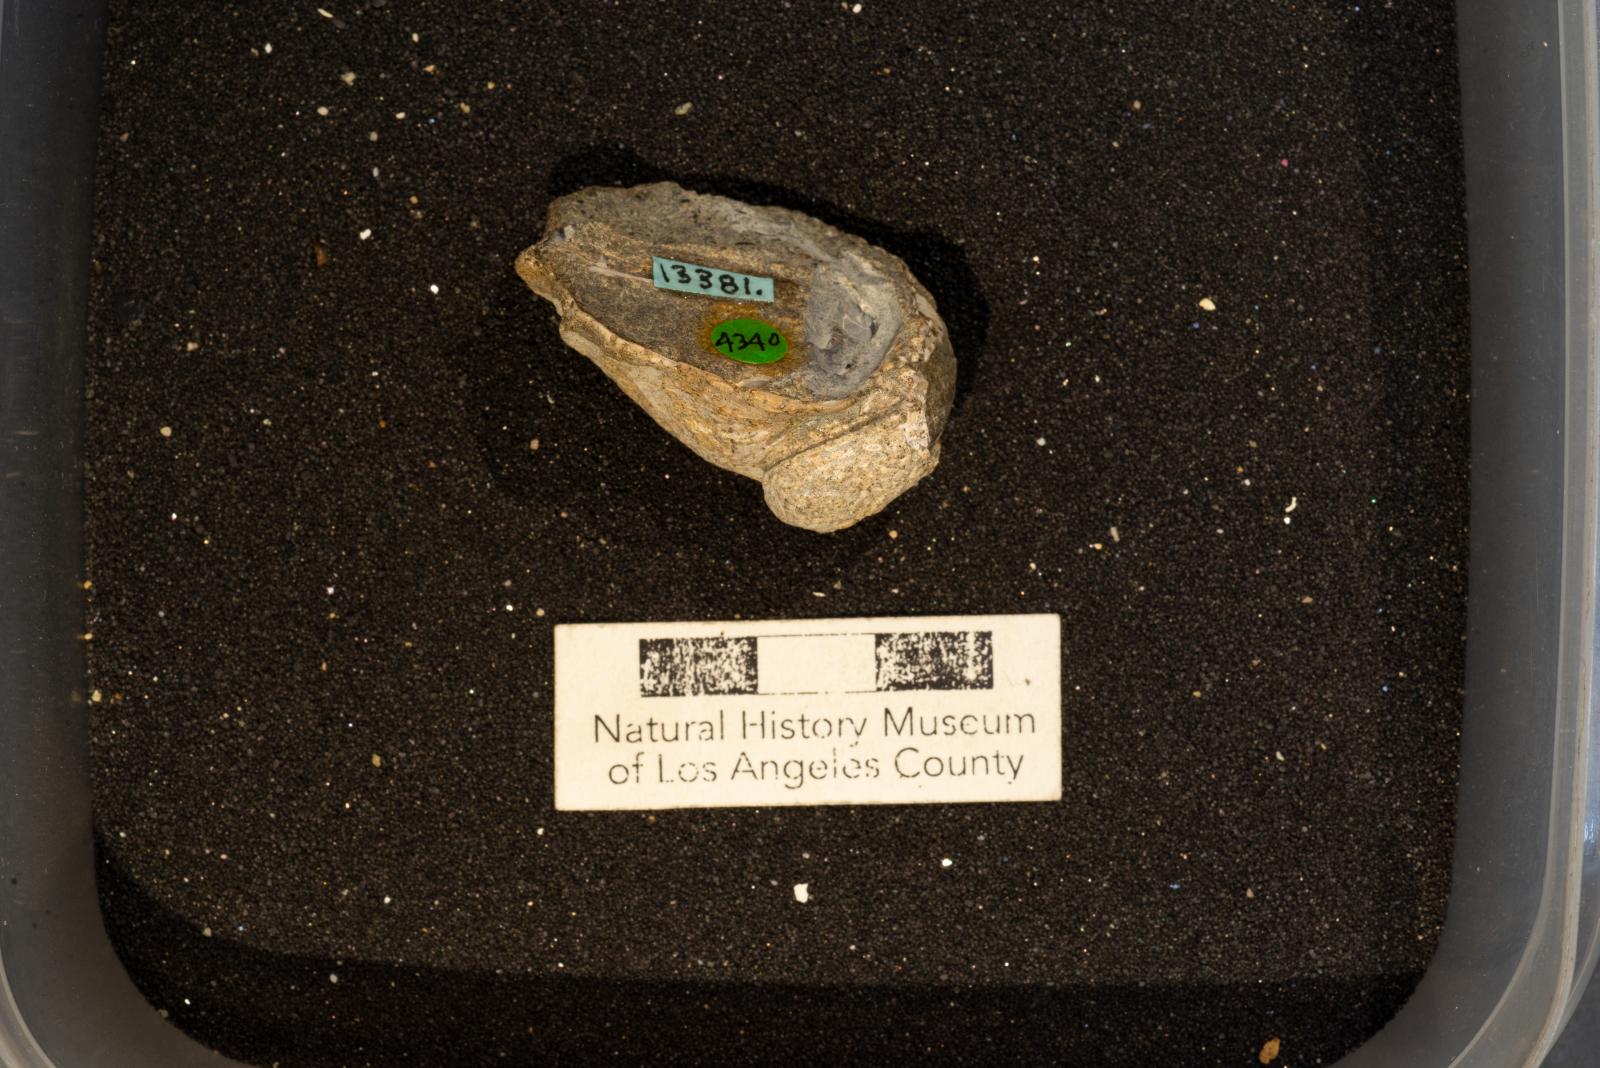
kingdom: Animalia
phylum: Mollusca
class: Gastropoda
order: Littorinimorpha
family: Calyptraeidae
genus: Lysis
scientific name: Lysis duplicosta
